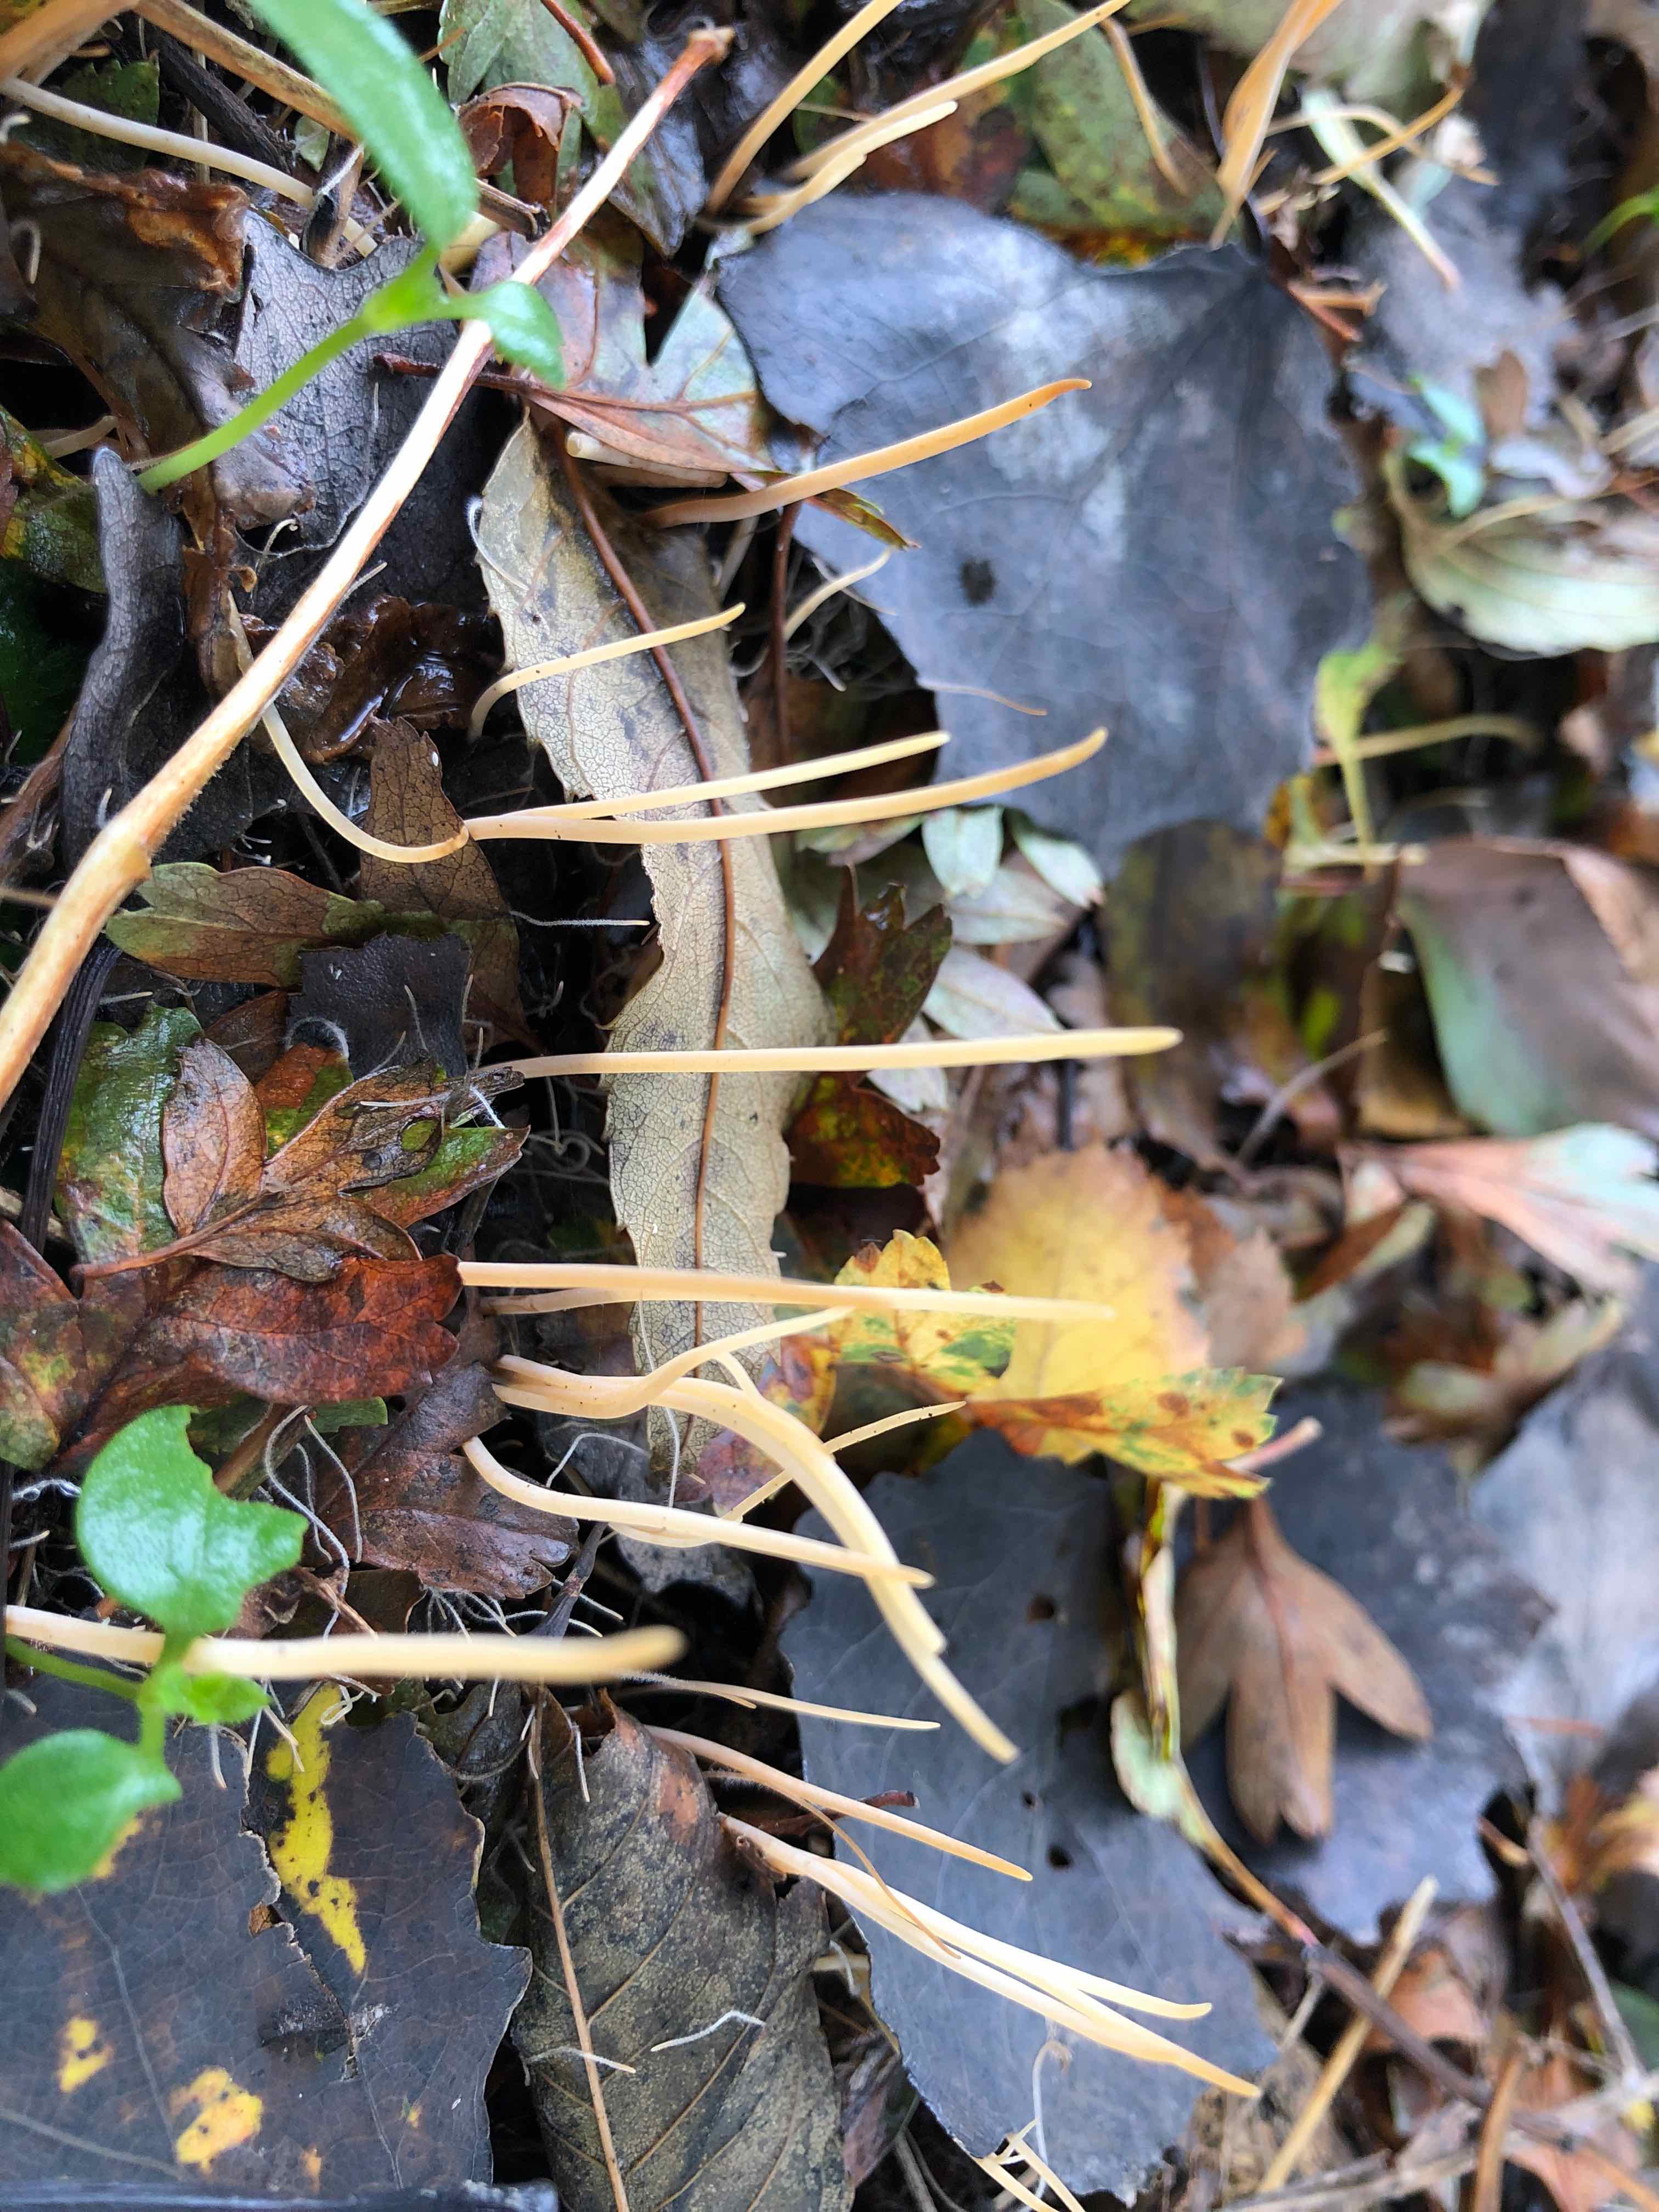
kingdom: Fungi
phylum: Basidiomycota
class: Agaricomycetes
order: Agaricales
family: Typhulaceae
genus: Typhula
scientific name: Typhula juncea
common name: trådagtig rørkølle
